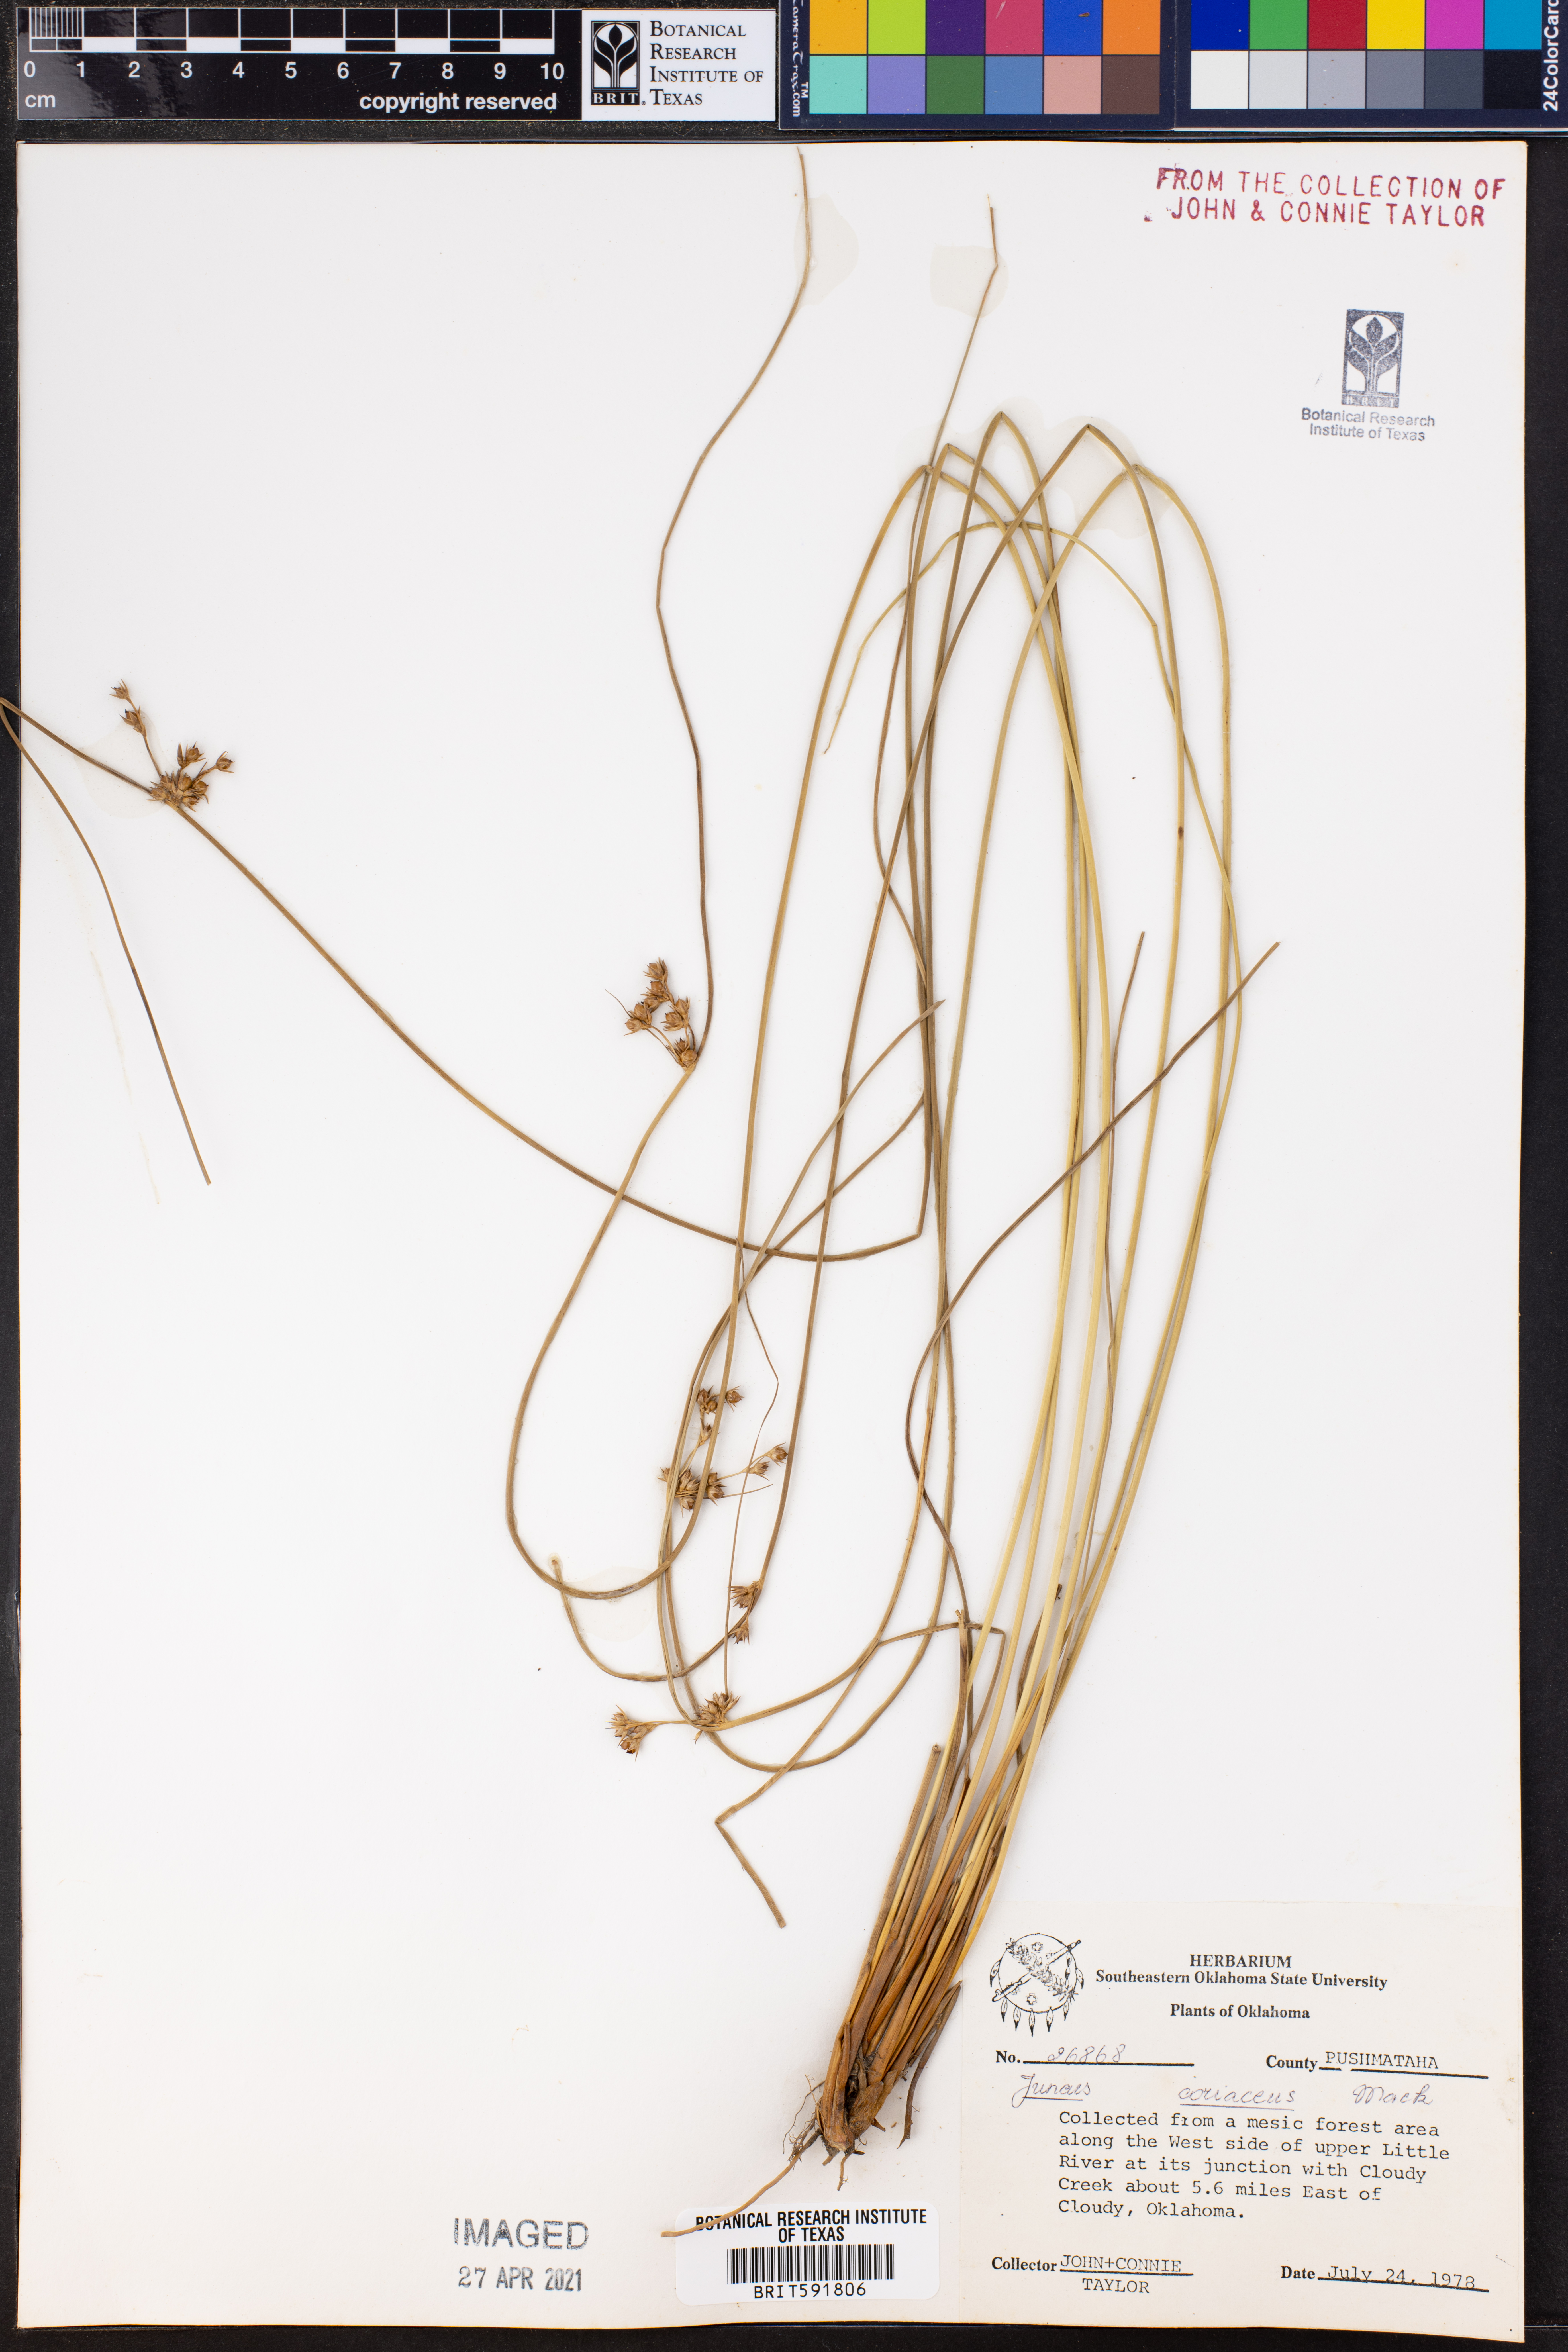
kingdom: Plantae
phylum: Tracheophyta
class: Liliopsida
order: Poales
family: Juncaceae
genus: Juncus
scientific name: Juncus coriaceus
